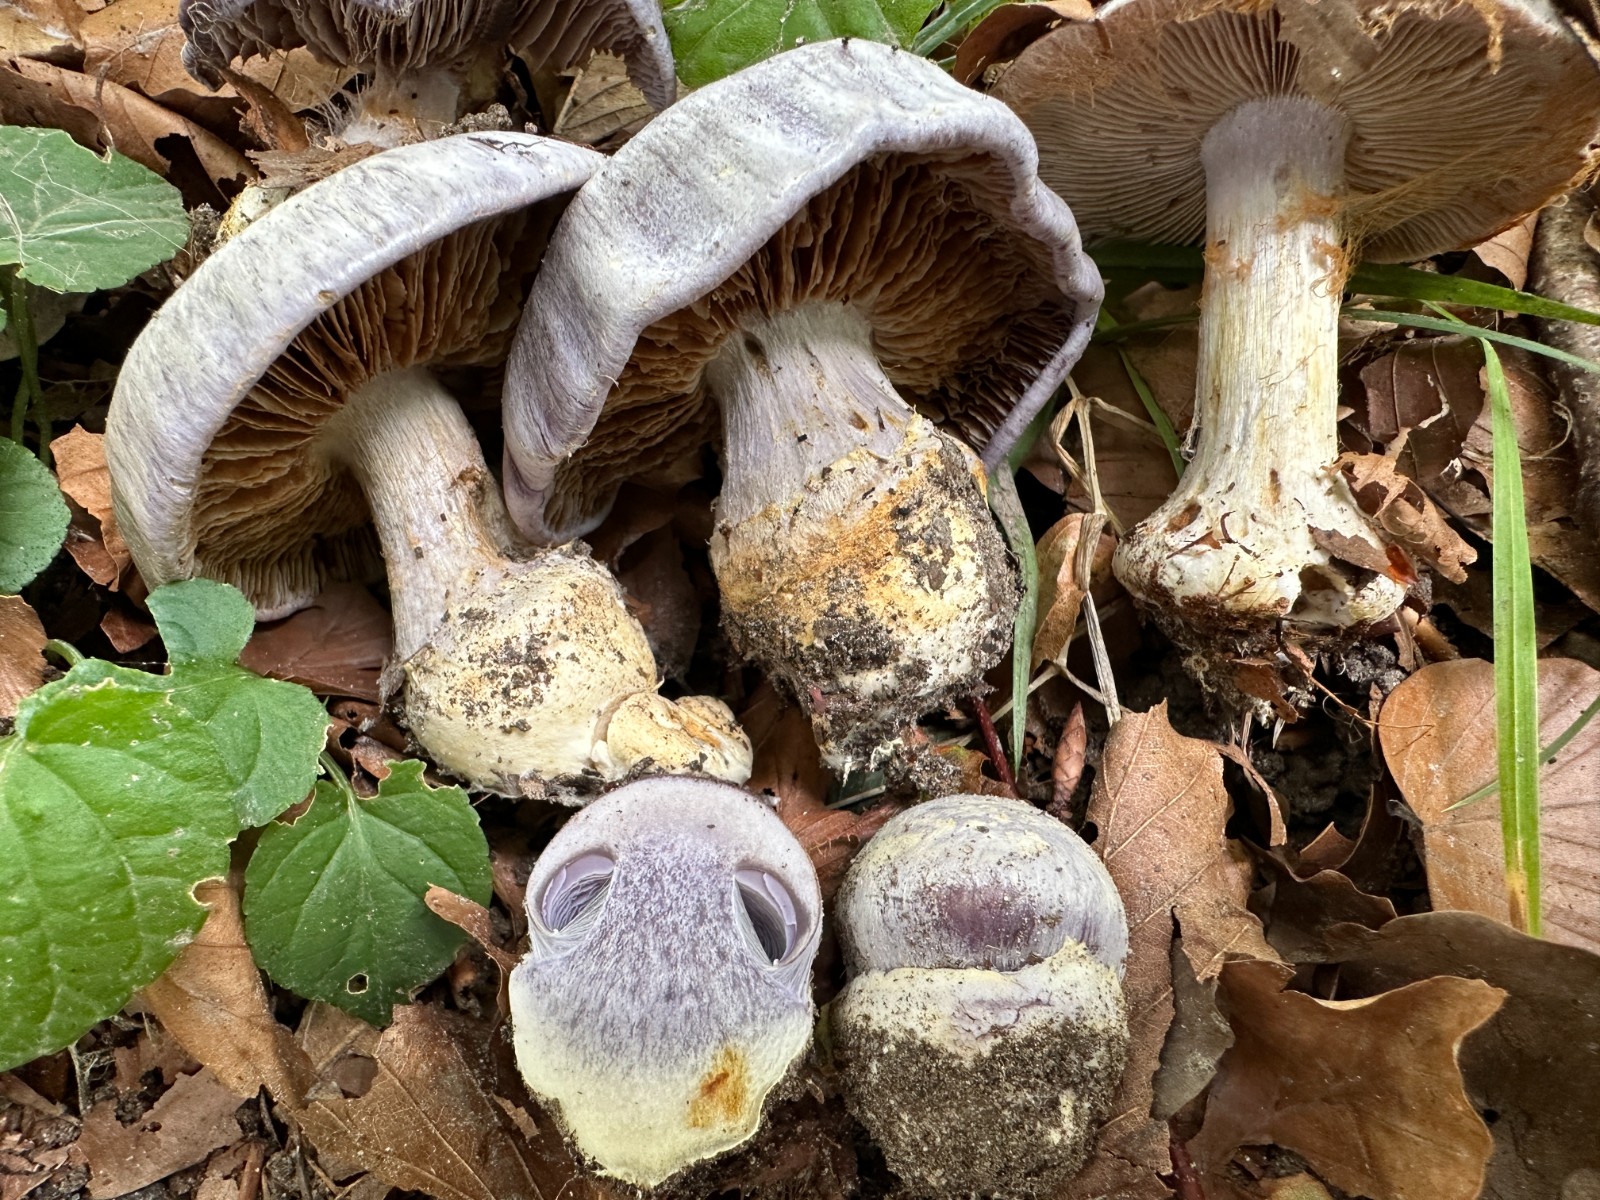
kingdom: Fungi
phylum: Basidiomycota
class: Agaricomycetes
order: Agaricales
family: Cortinariaceae
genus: Cortinarius
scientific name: Cortinarius caerulescens
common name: blåkødet slørhat
